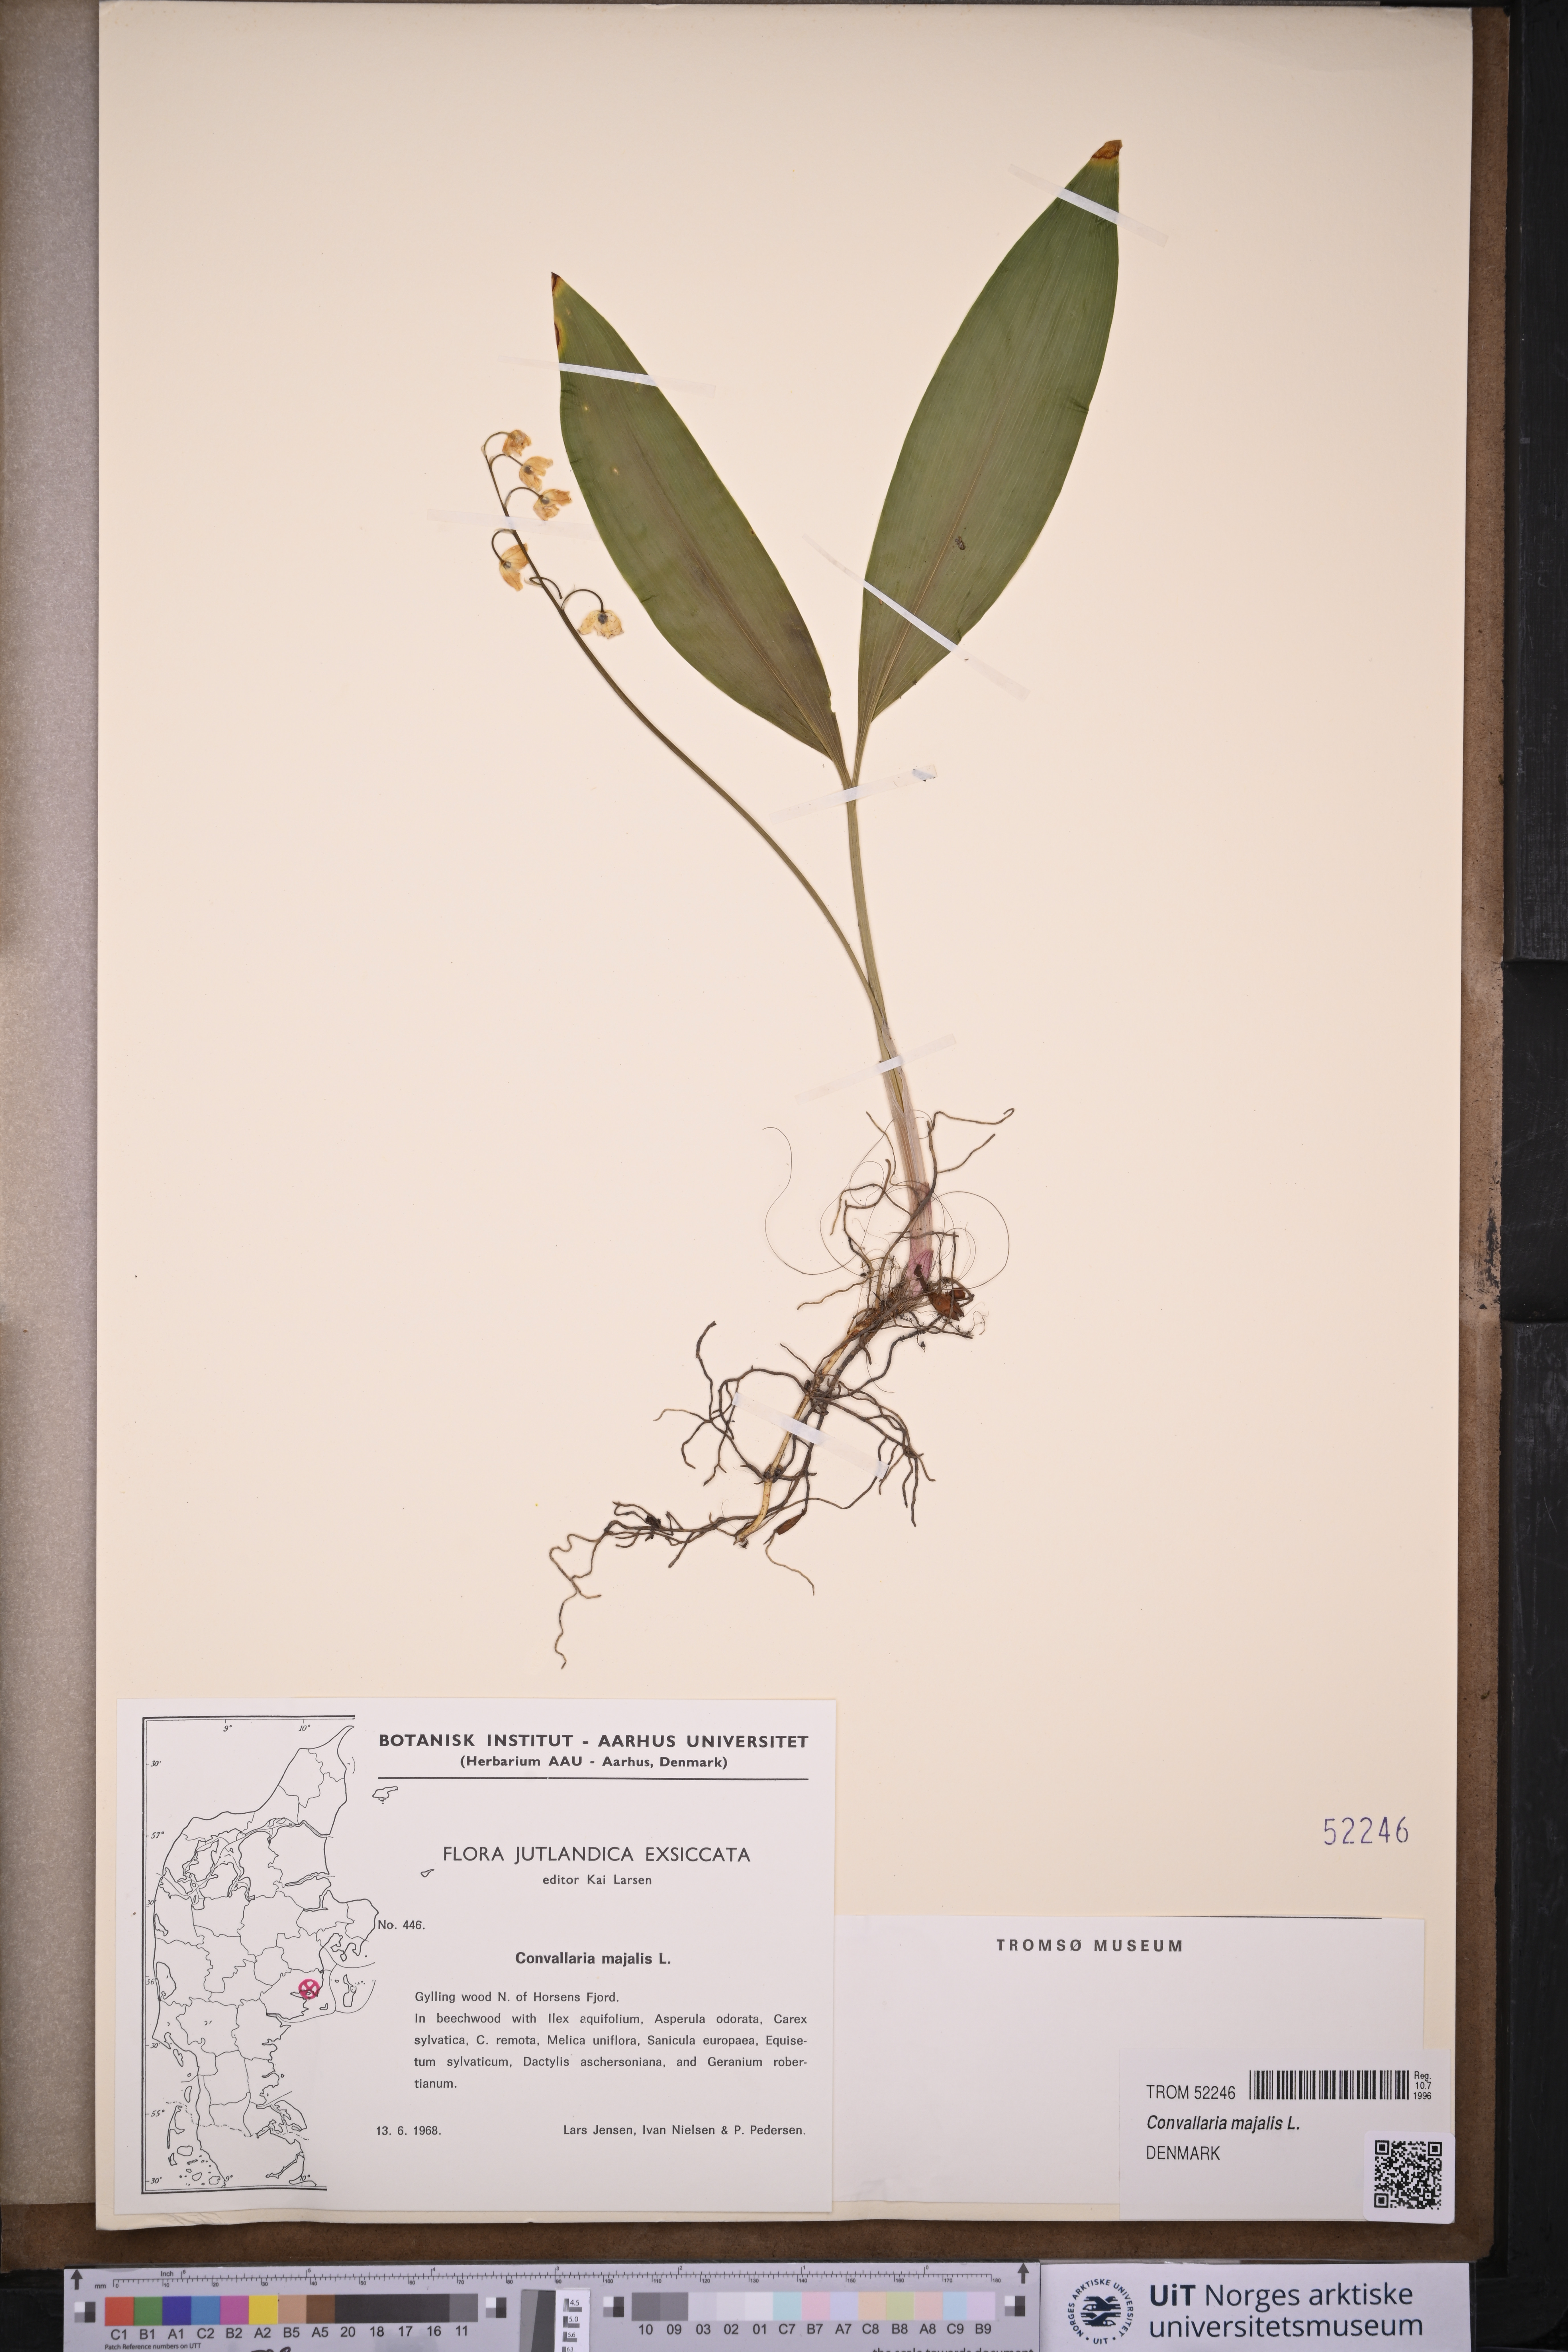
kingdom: Plantae
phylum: Tracheophyta
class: Liliopsida
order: Asparagales
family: Asparagaceae
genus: Convallaria
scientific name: Convallaria majalis
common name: Lily-of-the-valley
